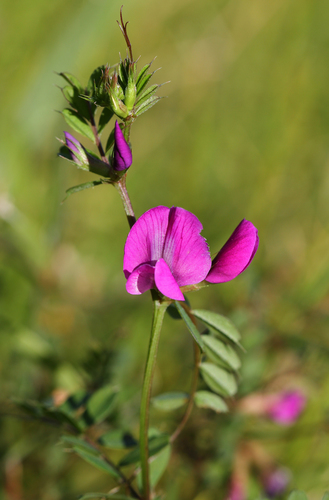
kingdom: Plantae
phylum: Tracheophyta
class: Magnoliopsida
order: Fabales
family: Fabaceae
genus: Vicia
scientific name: Vicia sativa
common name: Garden vetch
